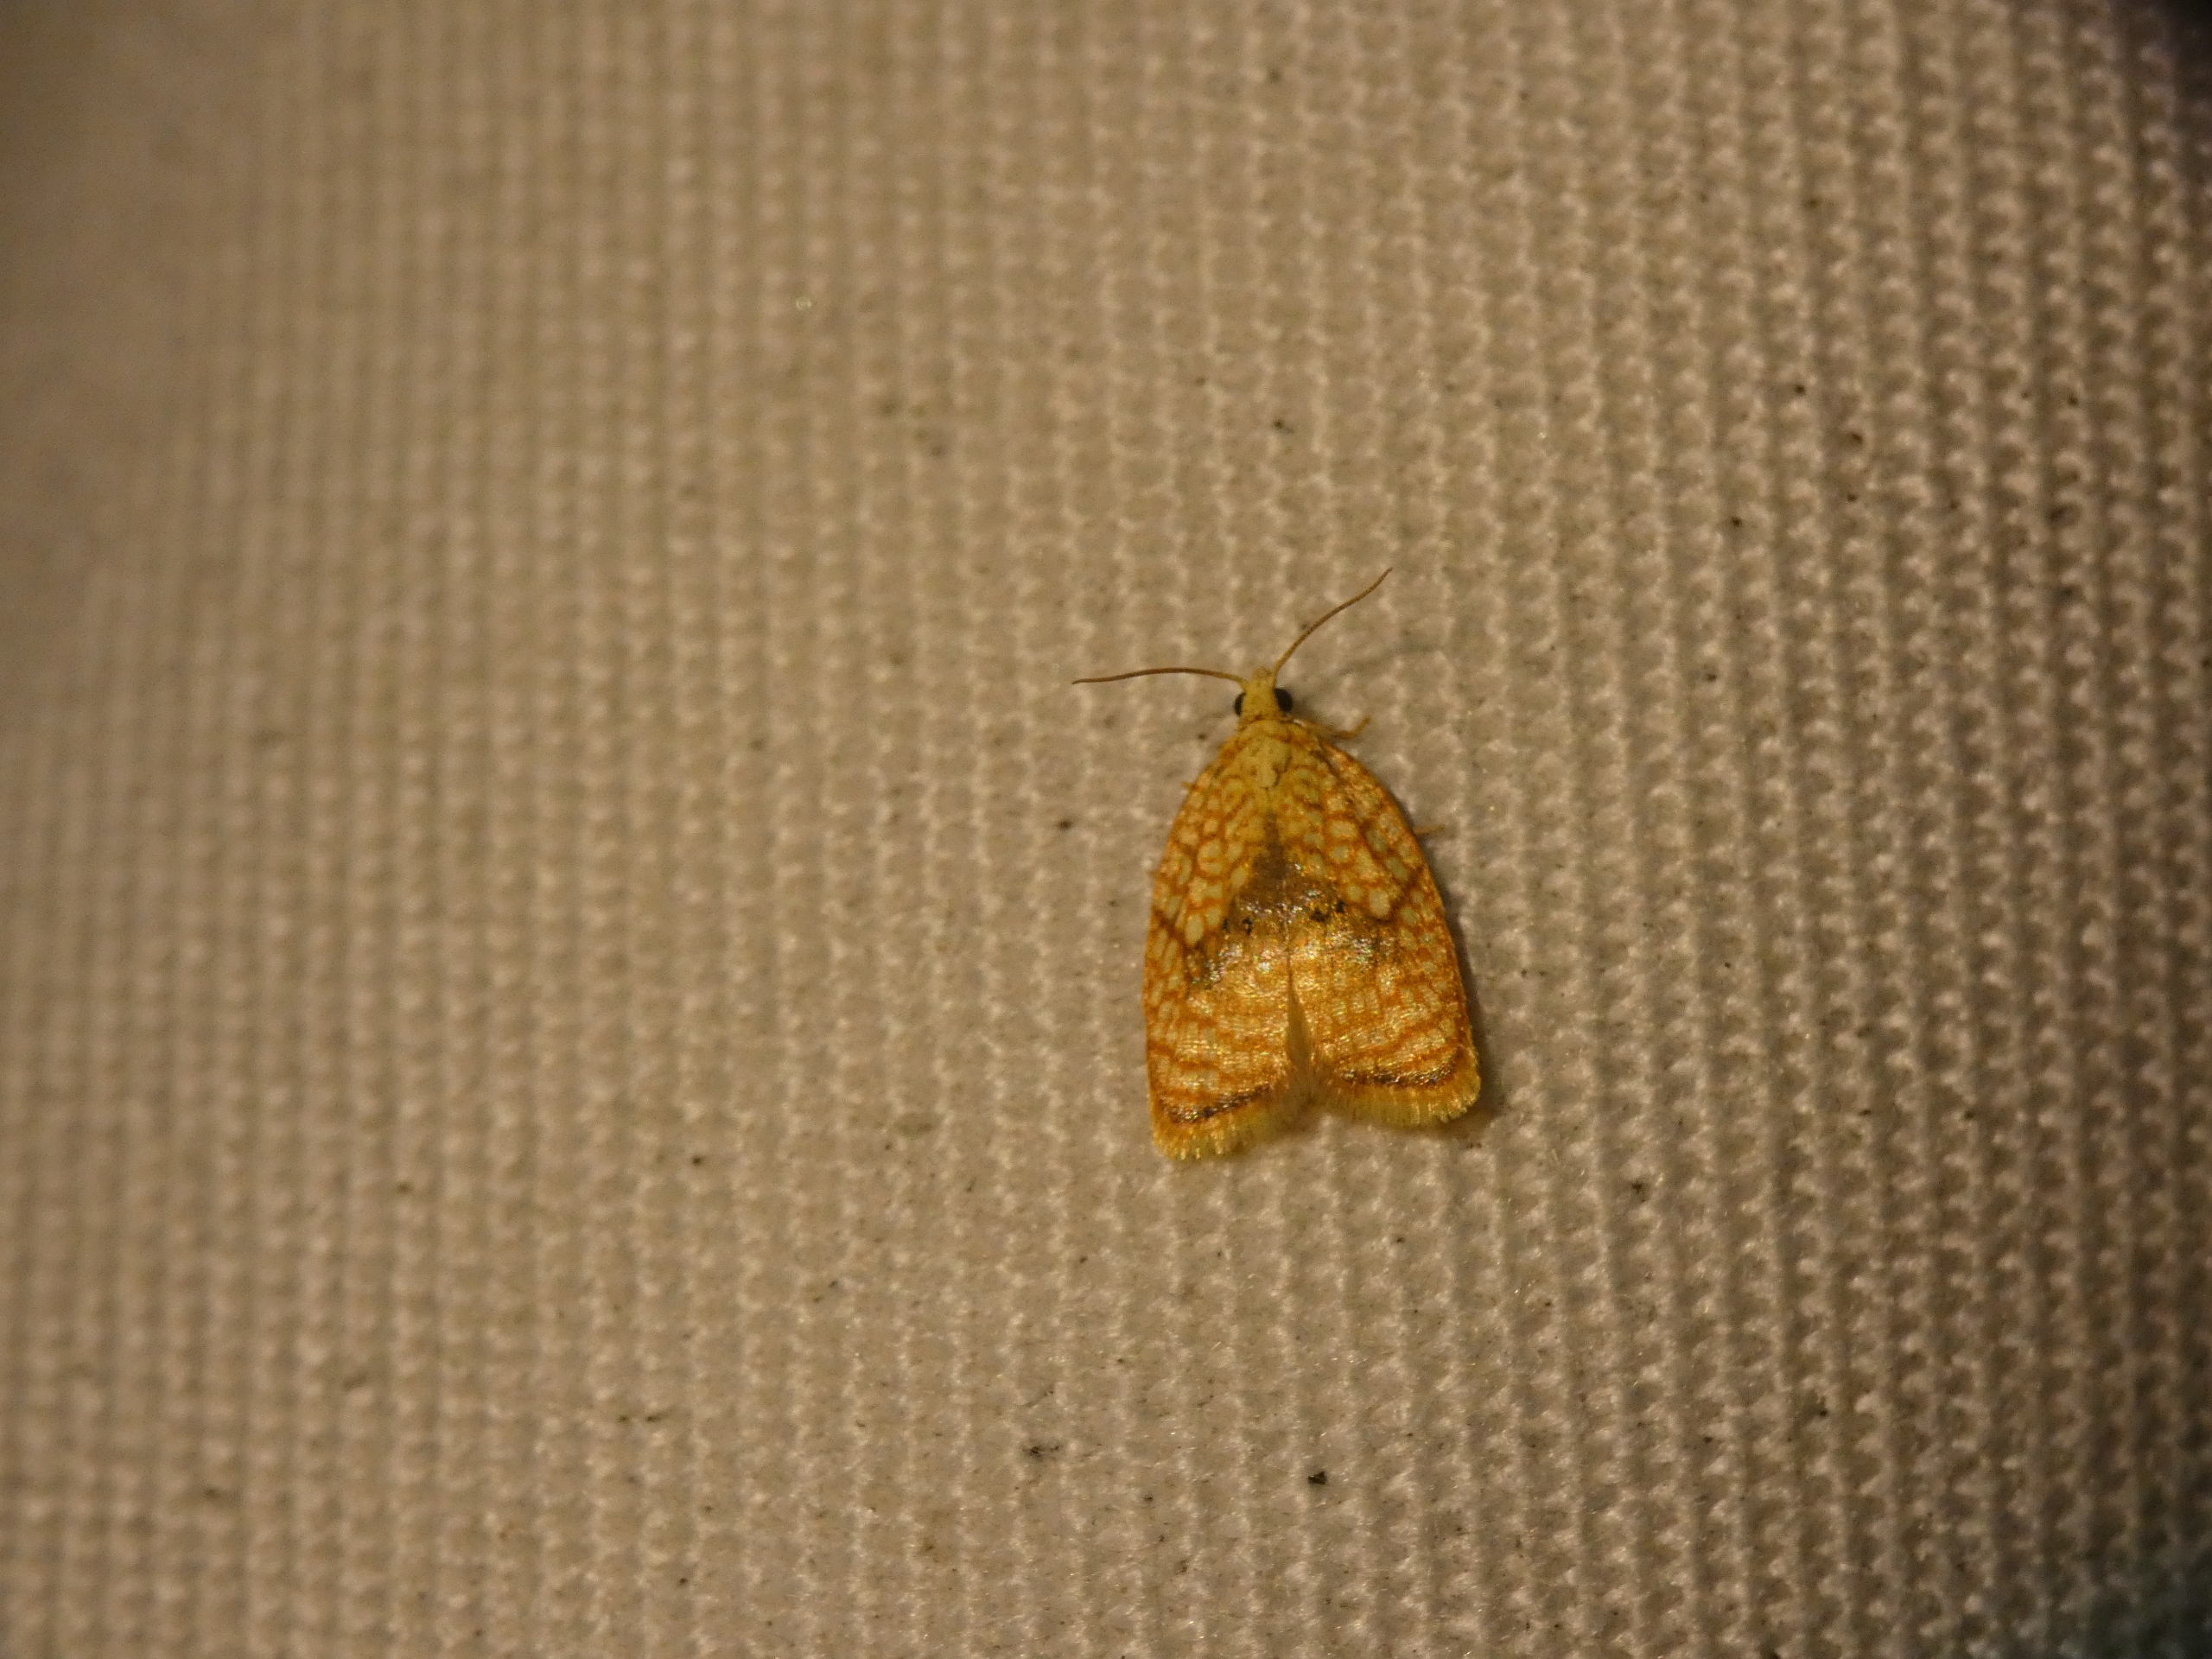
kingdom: Animalia
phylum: Arthropoda
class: Insecta
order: Lepidoptera
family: Tortricidae
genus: Acleris
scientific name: Acleris forsskaleana
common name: Gul ahornvikler
